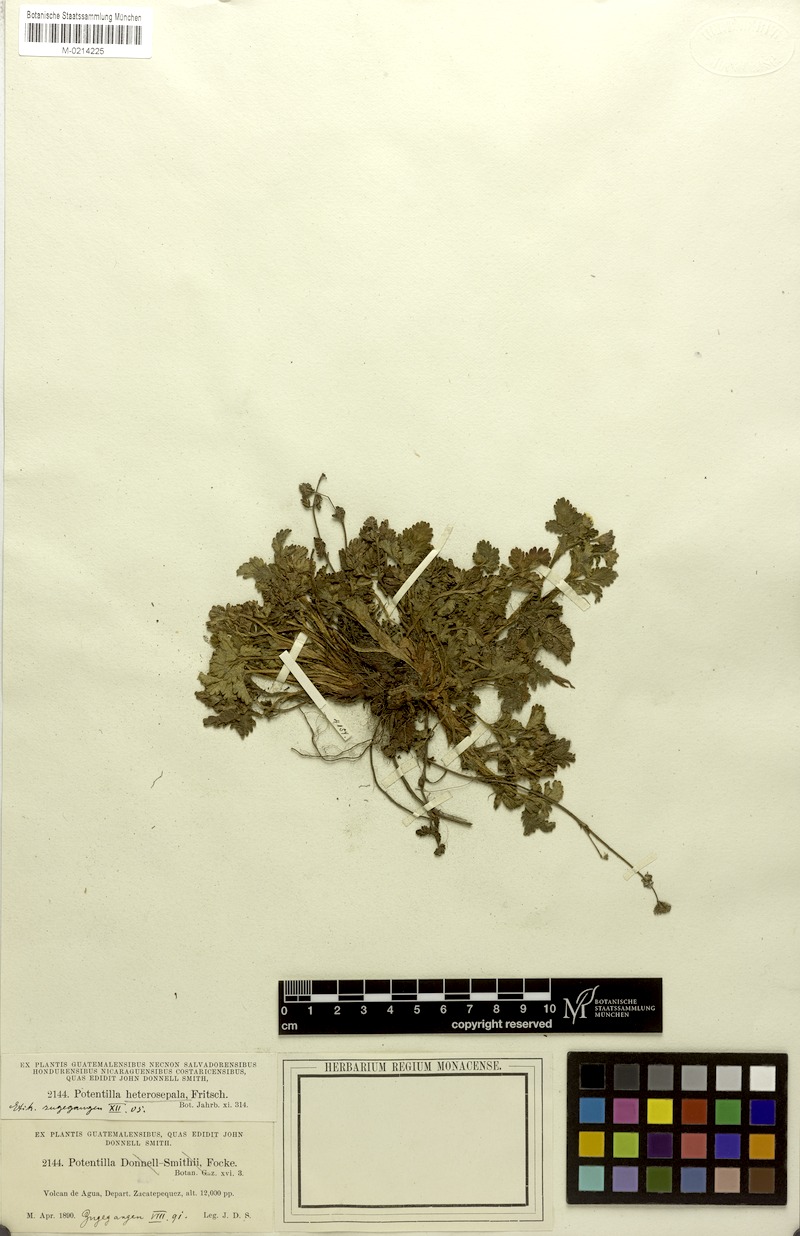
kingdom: Plantae
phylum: Tracheophyta
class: Magnoliopsida
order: Rosales
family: Rosaceae
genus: Potentilla
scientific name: Potentilla heterosepala
